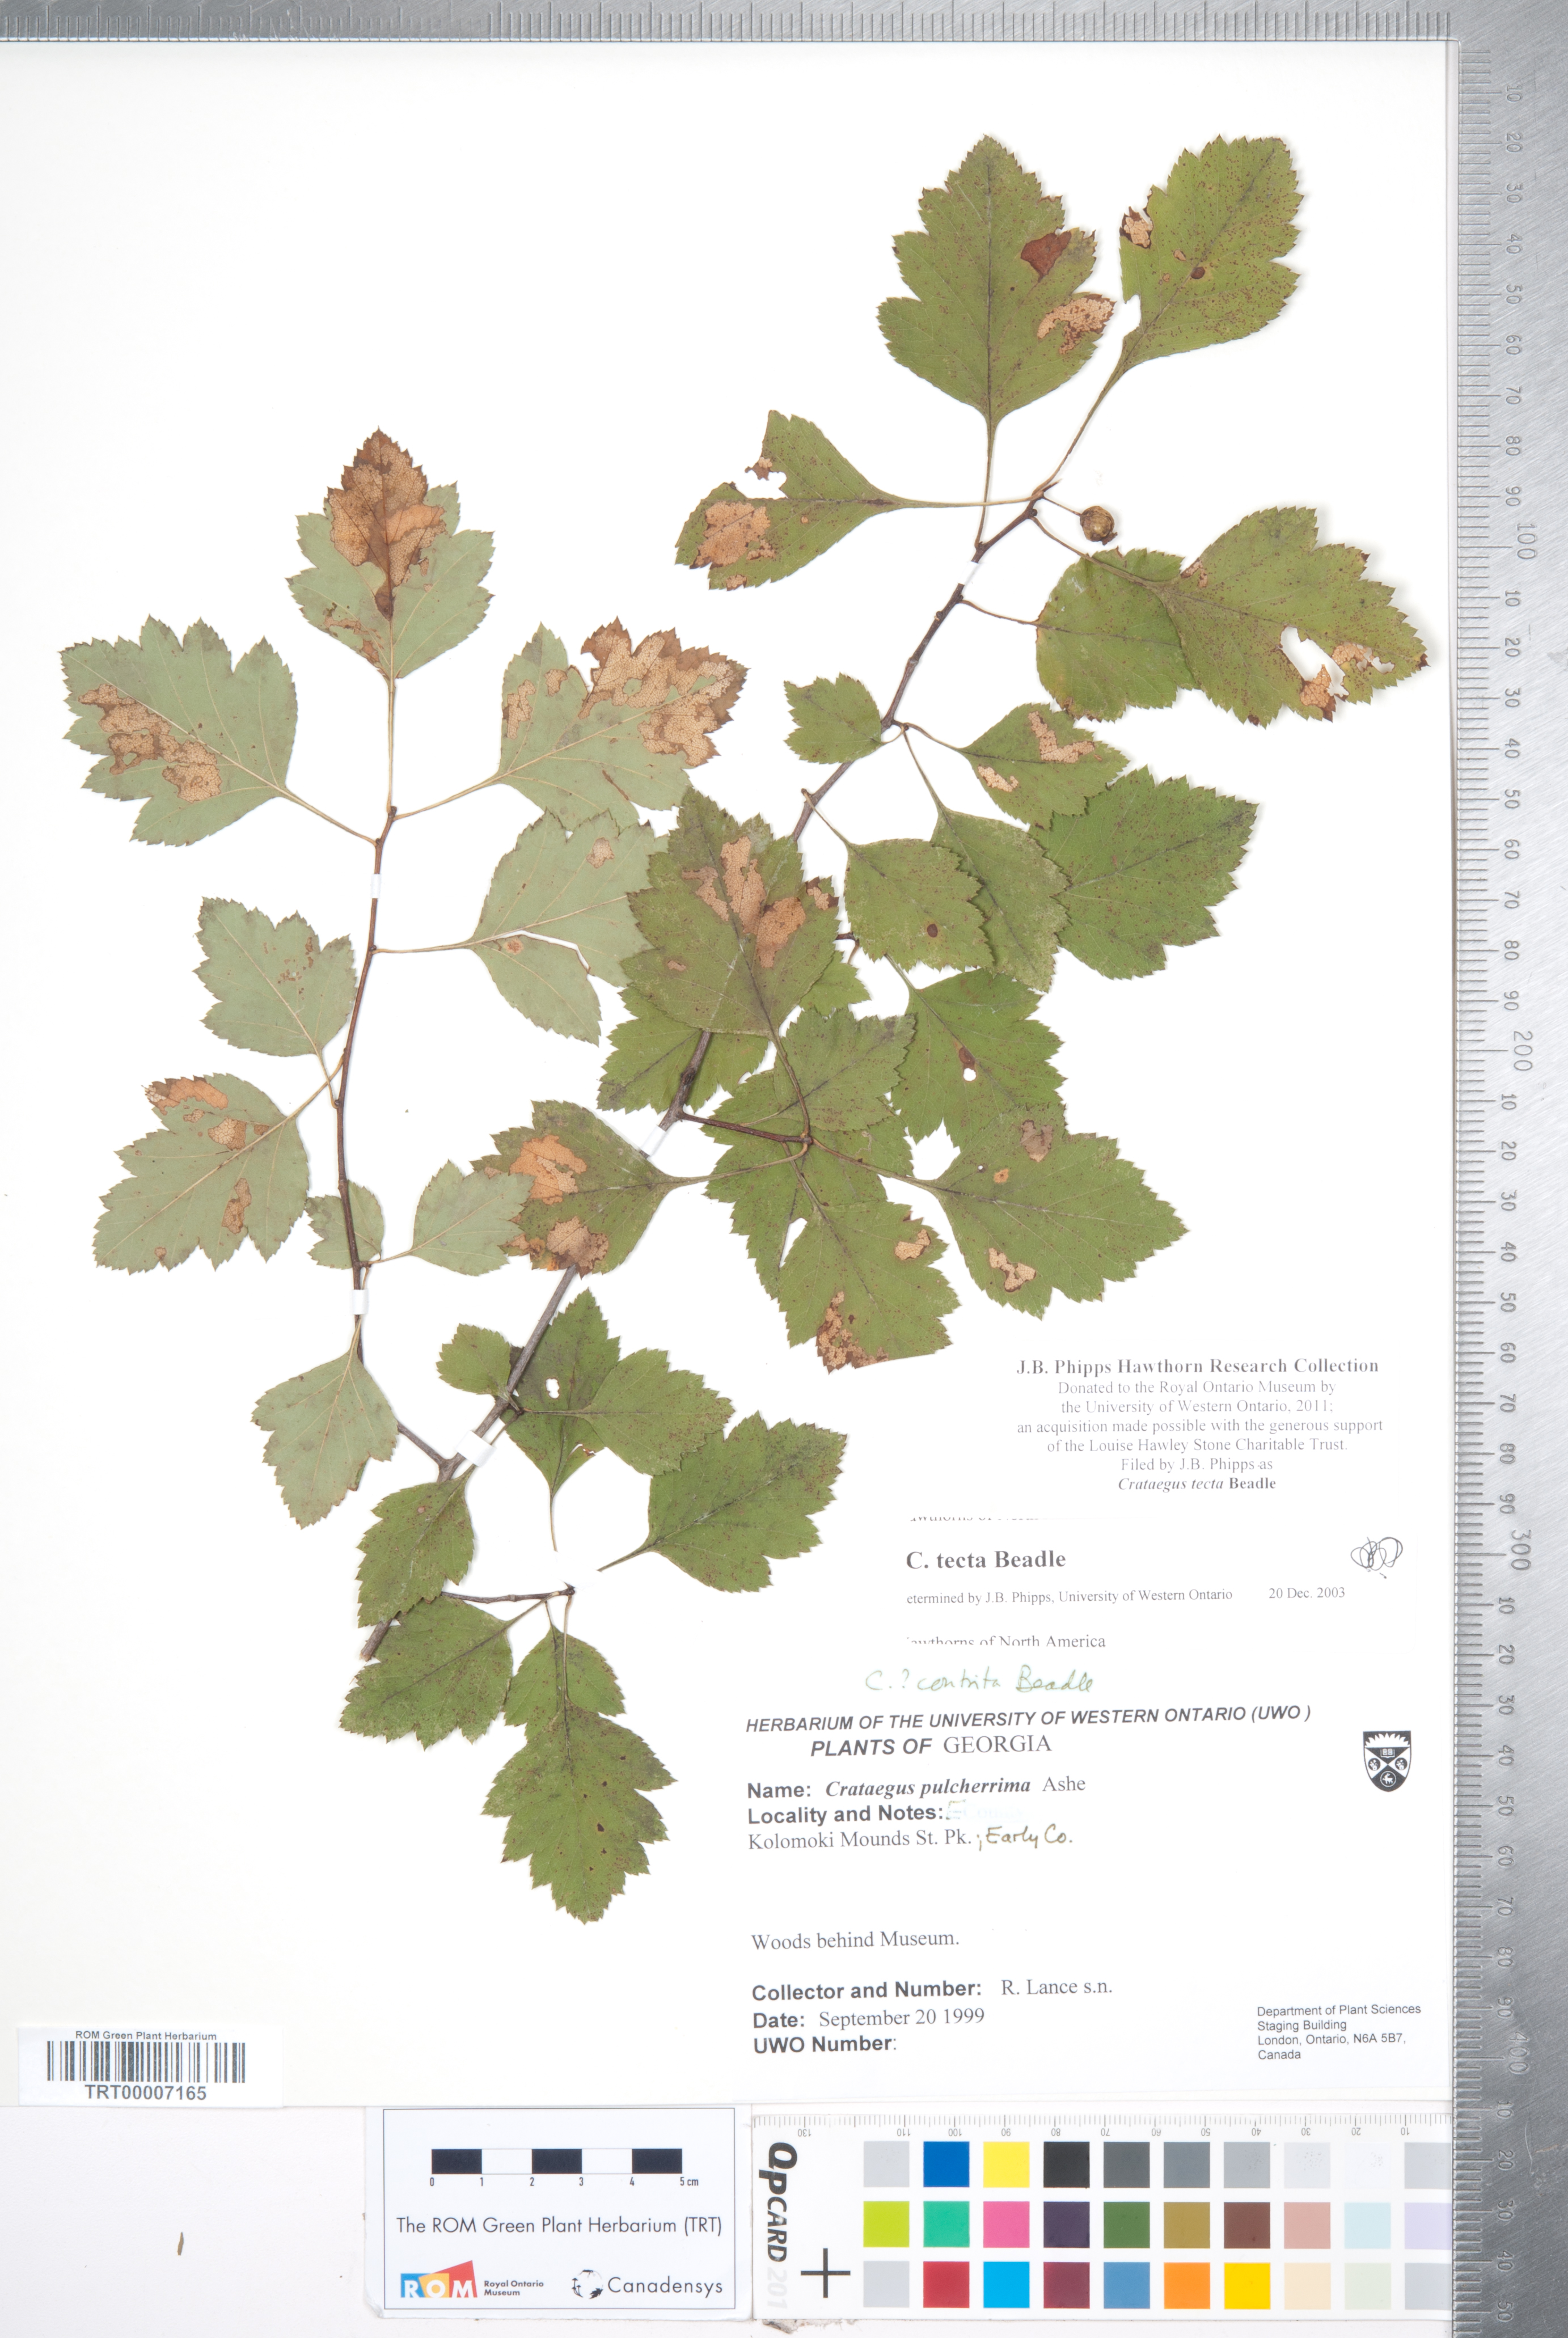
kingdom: Plantae
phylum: Tracheophyta
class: Magnoliopsida
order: Rosales
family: Rosaceae
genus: Crataegus
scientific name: Crataegus pulcherrima
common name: Beautiful hawthorn
